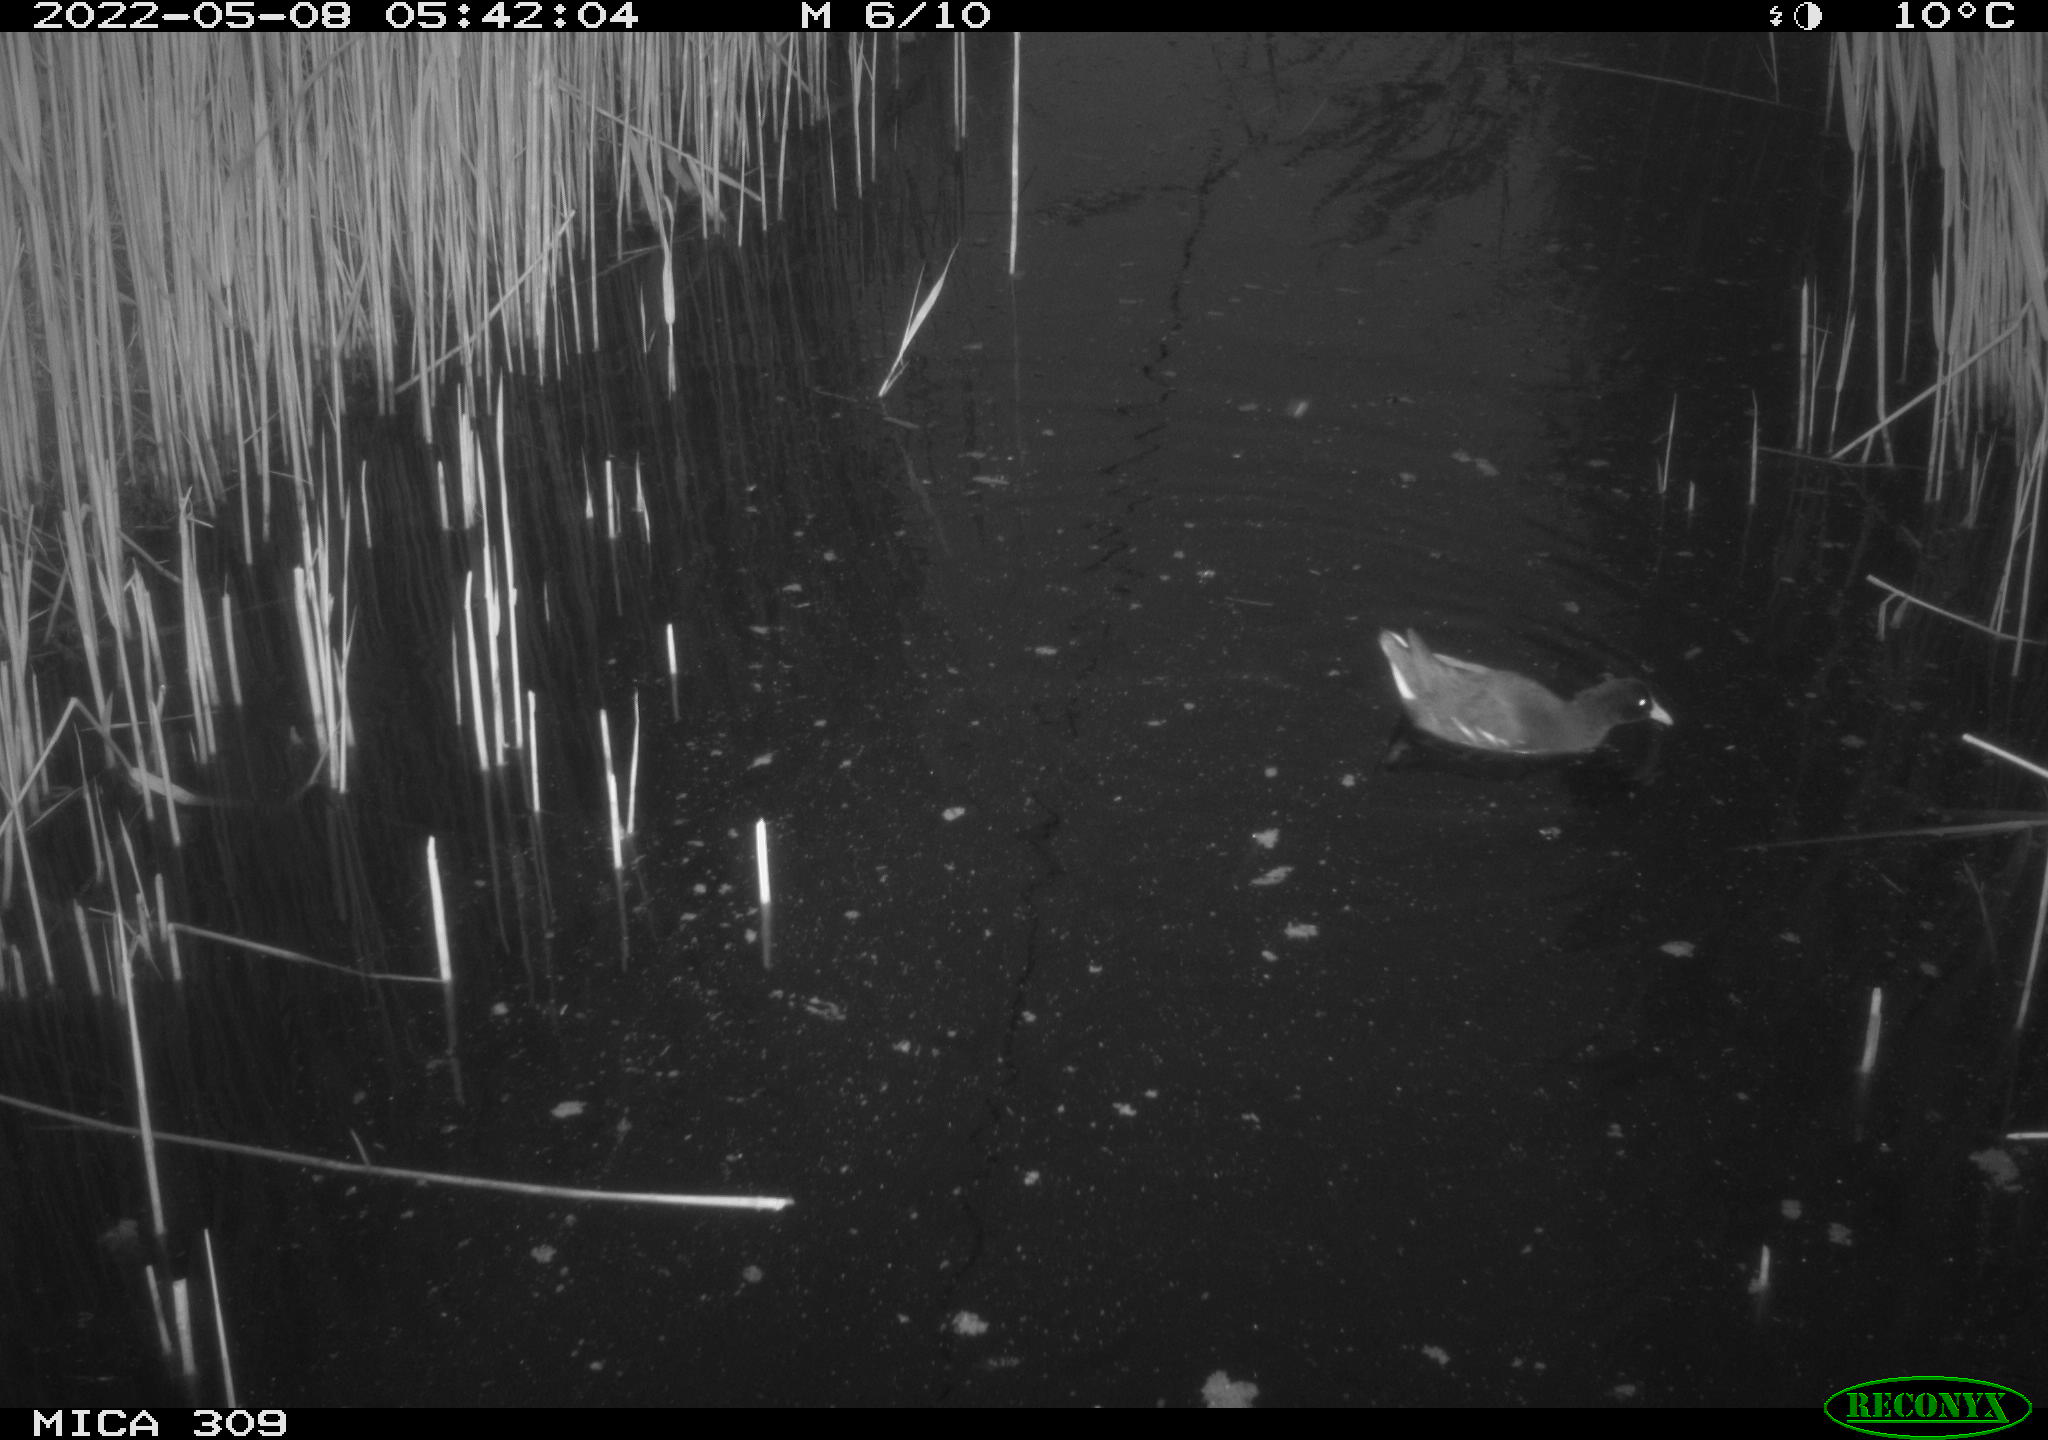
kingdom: Animalia
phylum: Chordata
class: Aves
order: Gruiformes
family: Rallidae
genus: Gallinula
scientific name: Gallinula chloropus
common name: Common moorhen
